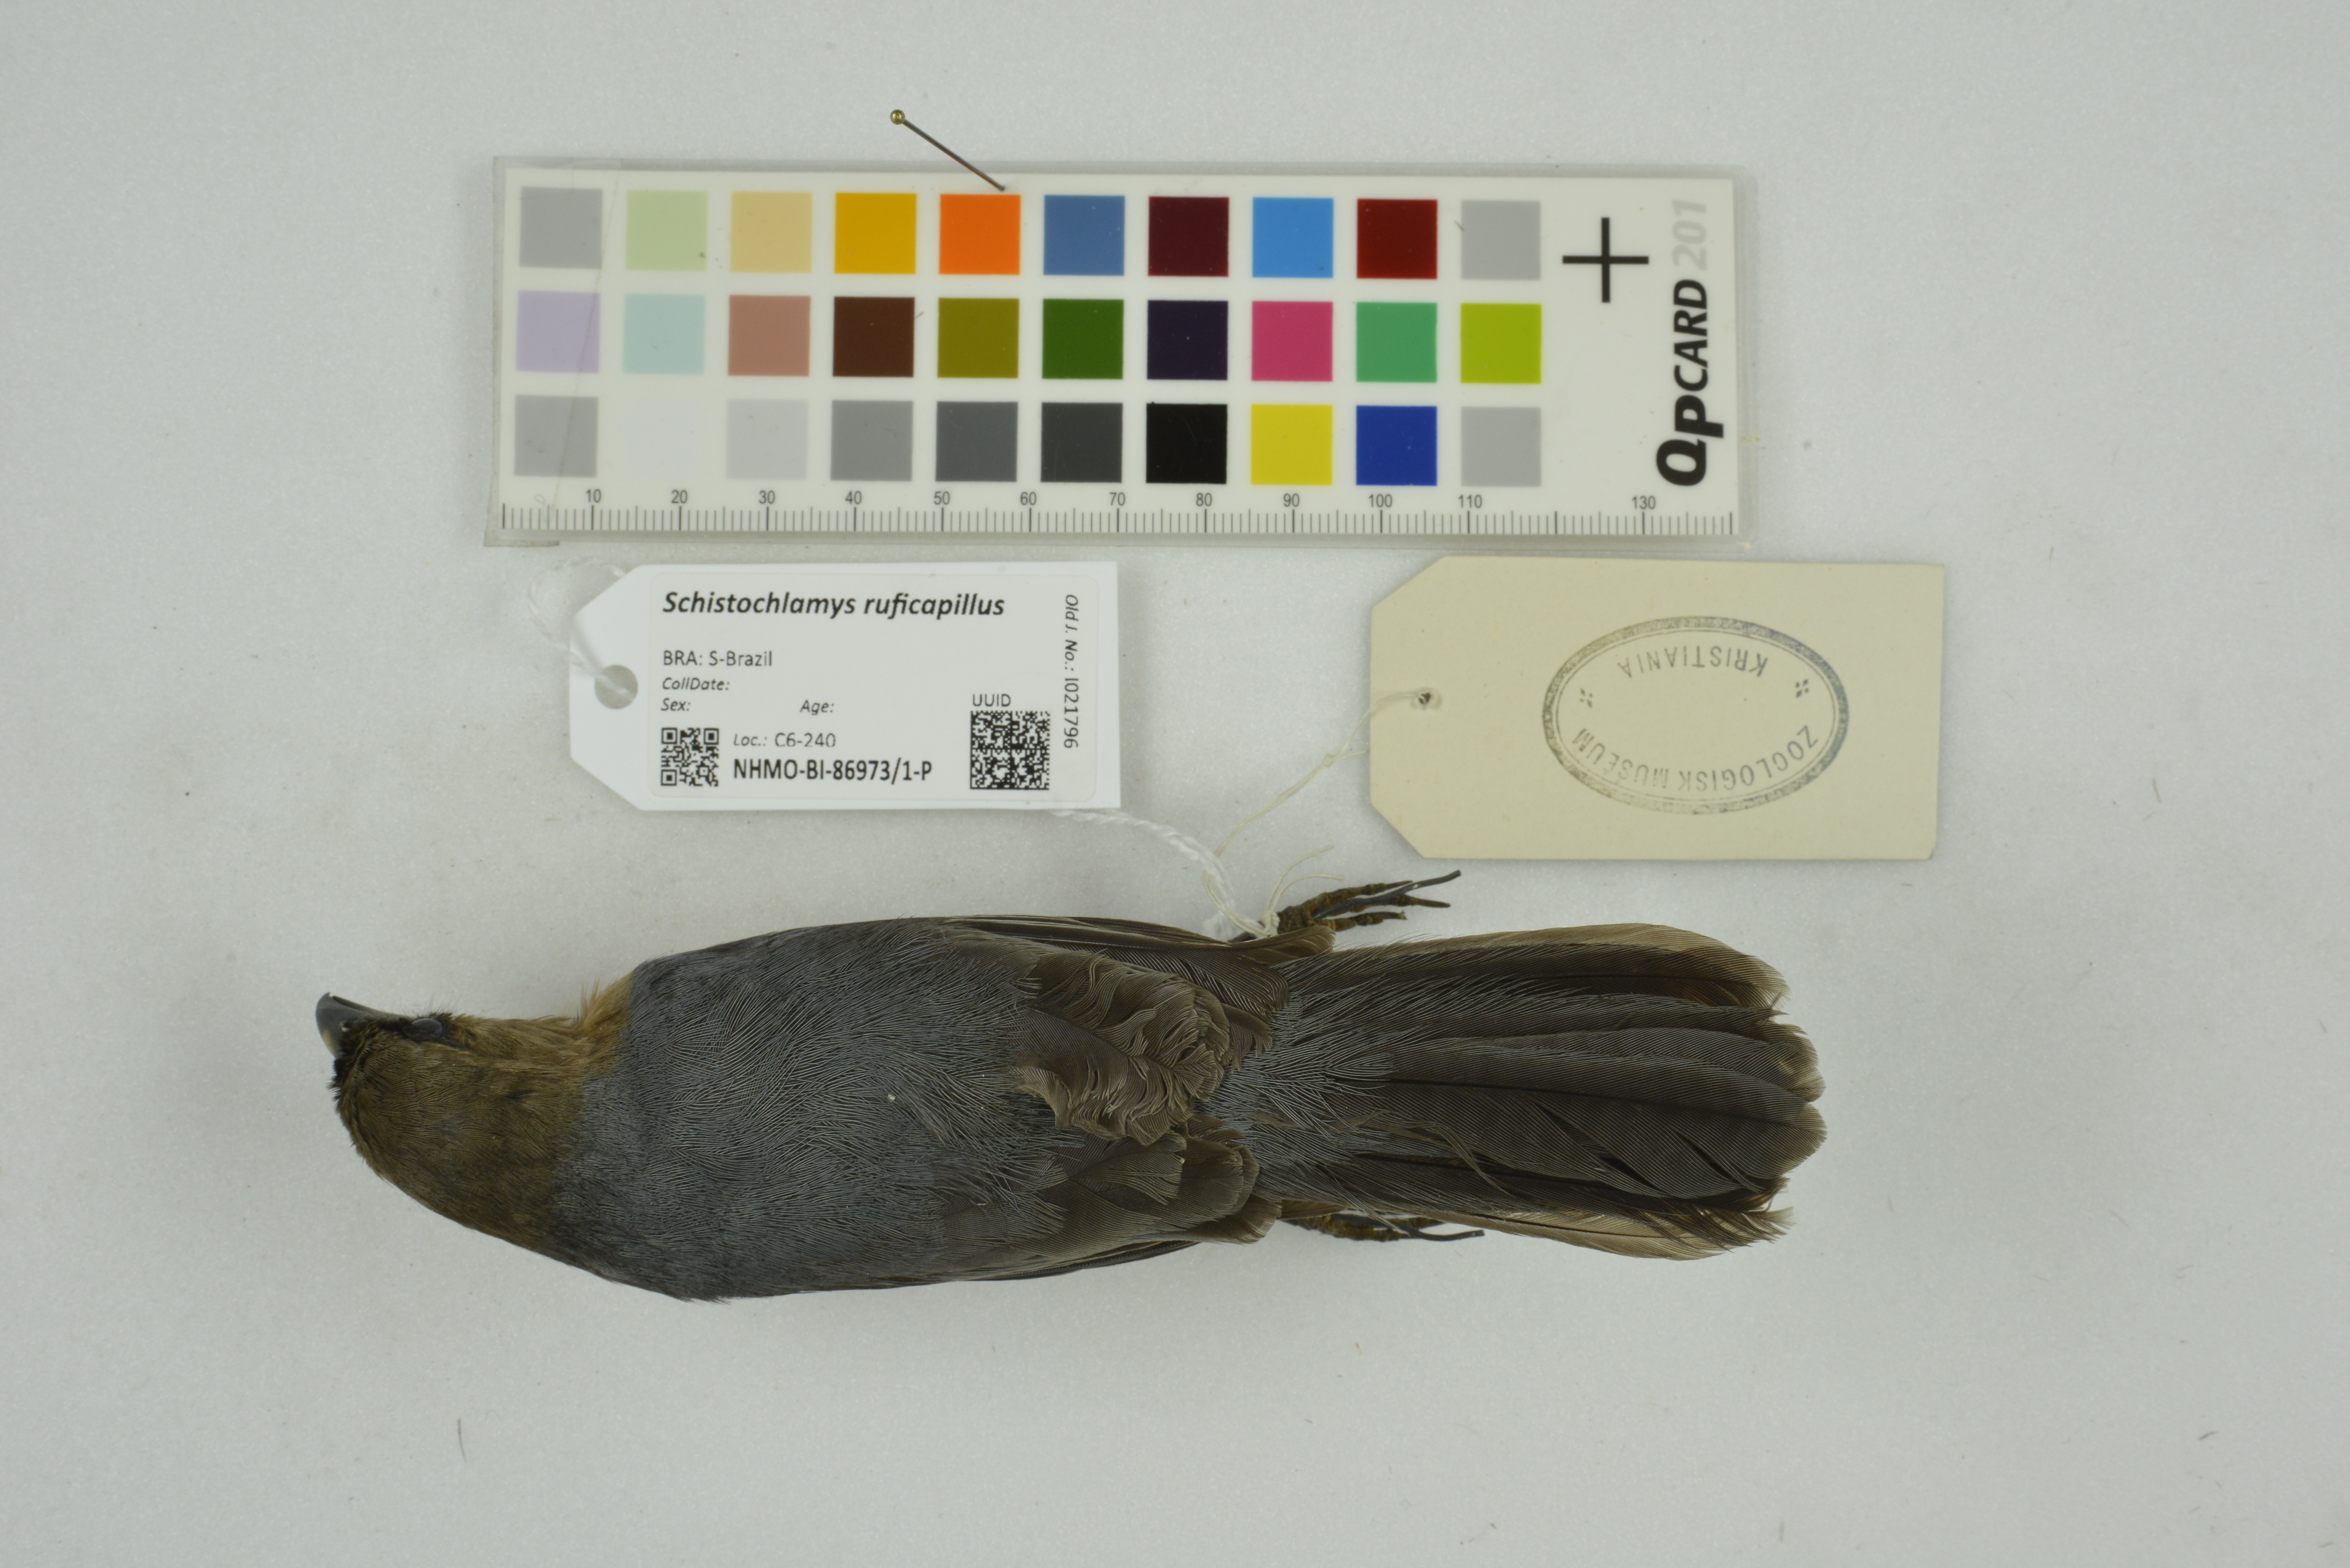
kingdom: Animalia
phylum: Chordata
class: Aves
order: Passeriformes
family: Thraupidae
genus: Schistochlamys
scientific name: Schistochlamys ruficapillus
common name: Cinnamon tanager
